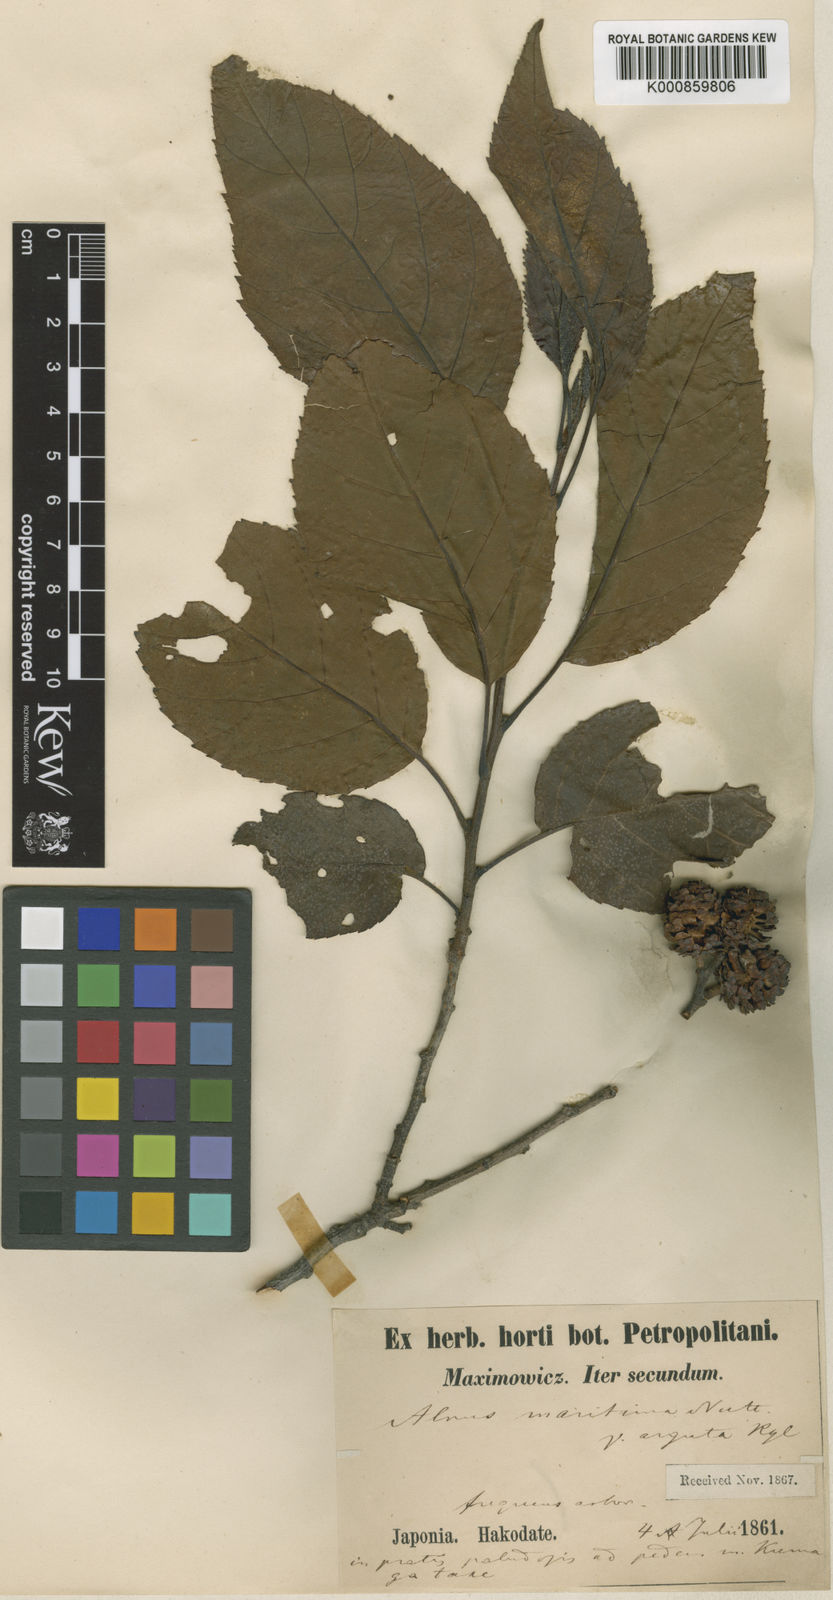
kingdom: Plantae
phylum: Tracheophyta
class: Magnoliopsida
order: Fagales
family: Betulaceae
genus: Alnus
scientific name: Alnus japonica
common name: Japanese alder
